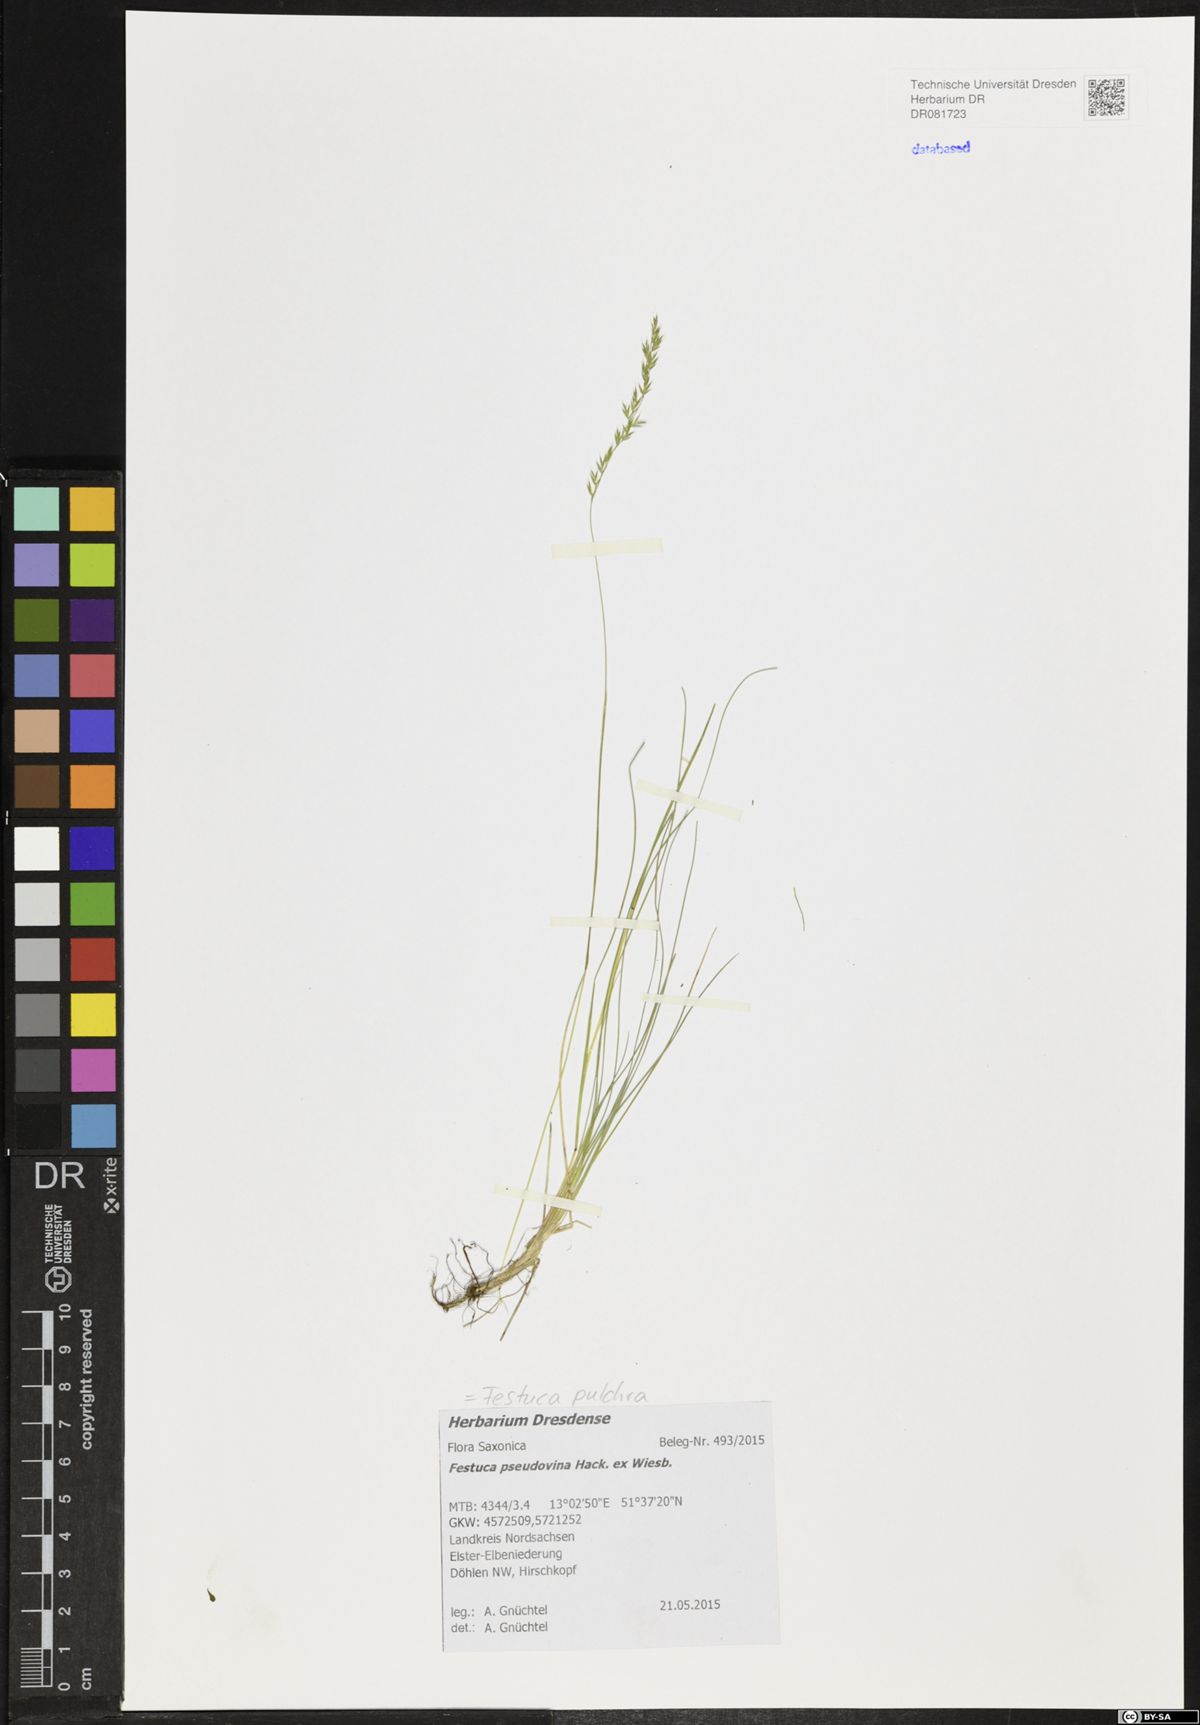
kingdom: Plantae
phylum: Tracheophyta
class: Liliopsida
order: Poales
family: Poaceae
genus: Festuca
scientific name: Festuca pulchra
